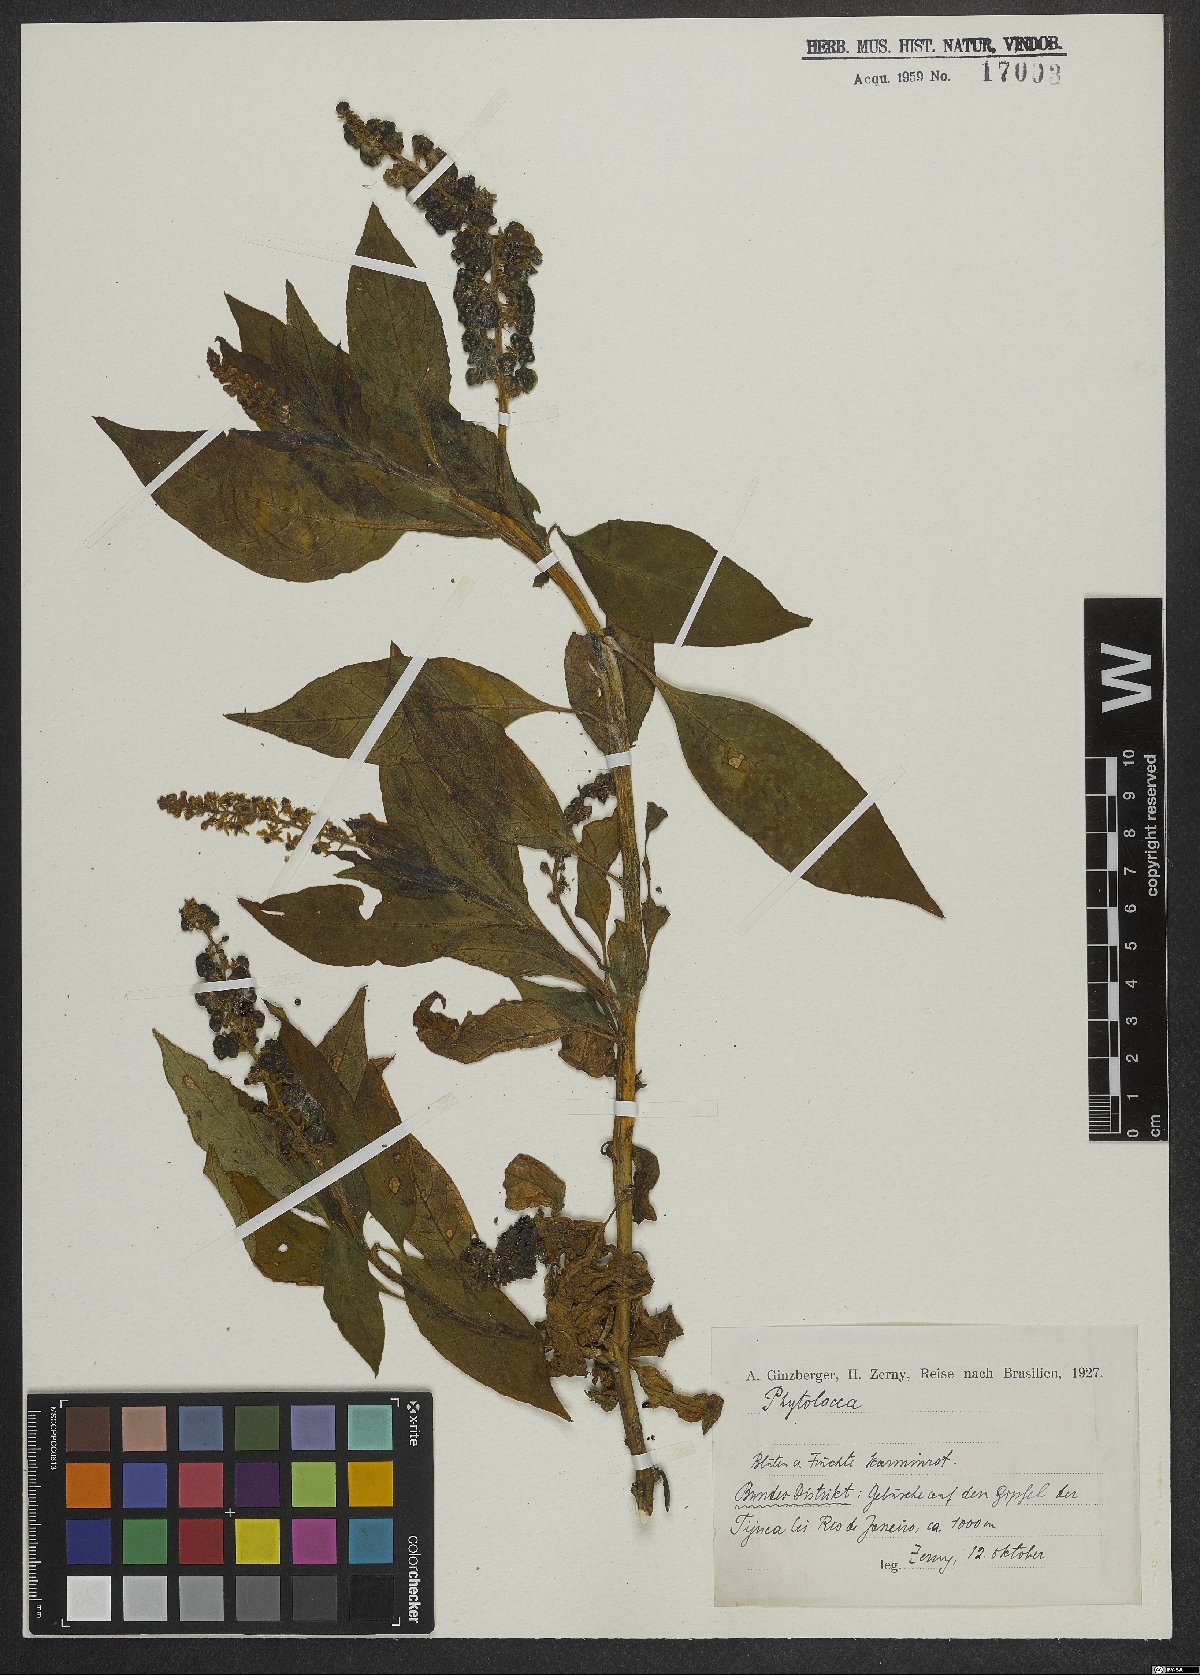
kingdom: Plantae
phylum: Tracheophyta
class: Magnoliopsida
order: Caryophyllales
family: Phytolaccaceae
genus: Phytolacca
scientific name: Phytolacca
